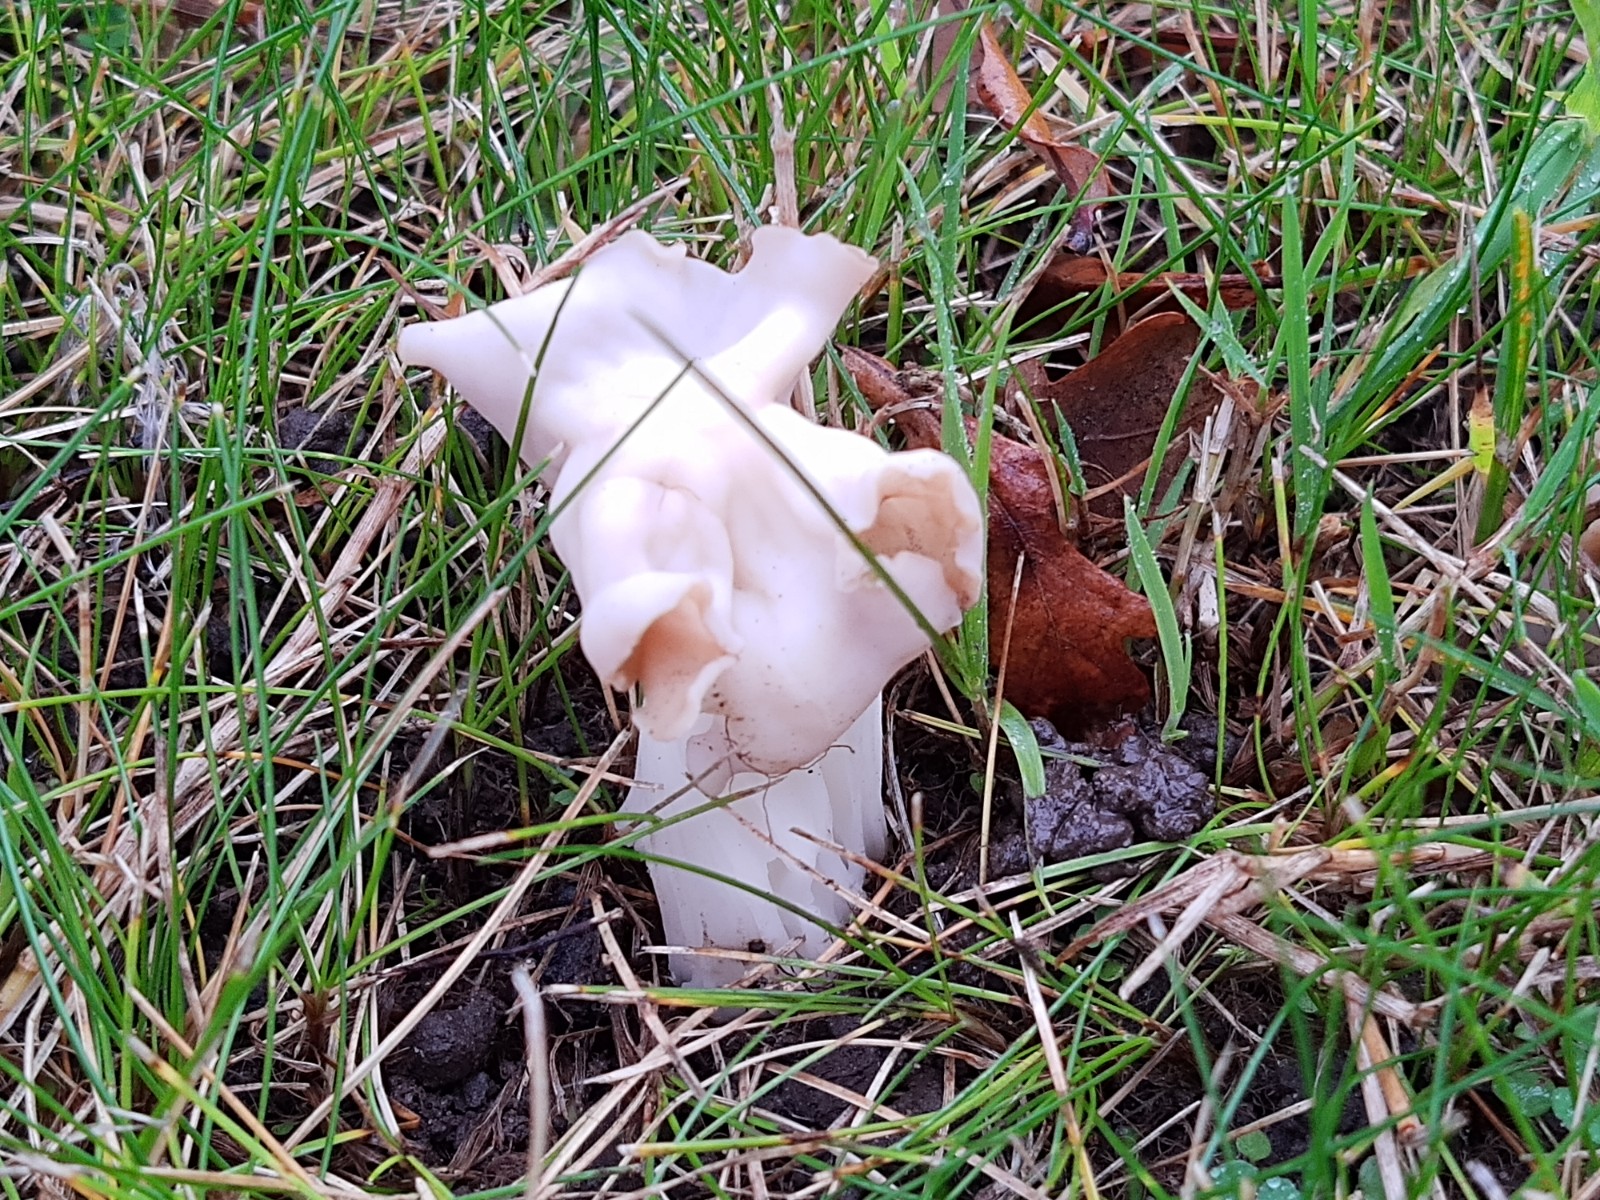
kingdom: Fungi
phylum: Ascomycota
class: Pezizomycetes
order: Pezizales
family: Helvellaceae
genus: Helvella
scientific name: Helvella crispa
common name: kruset foldhat
